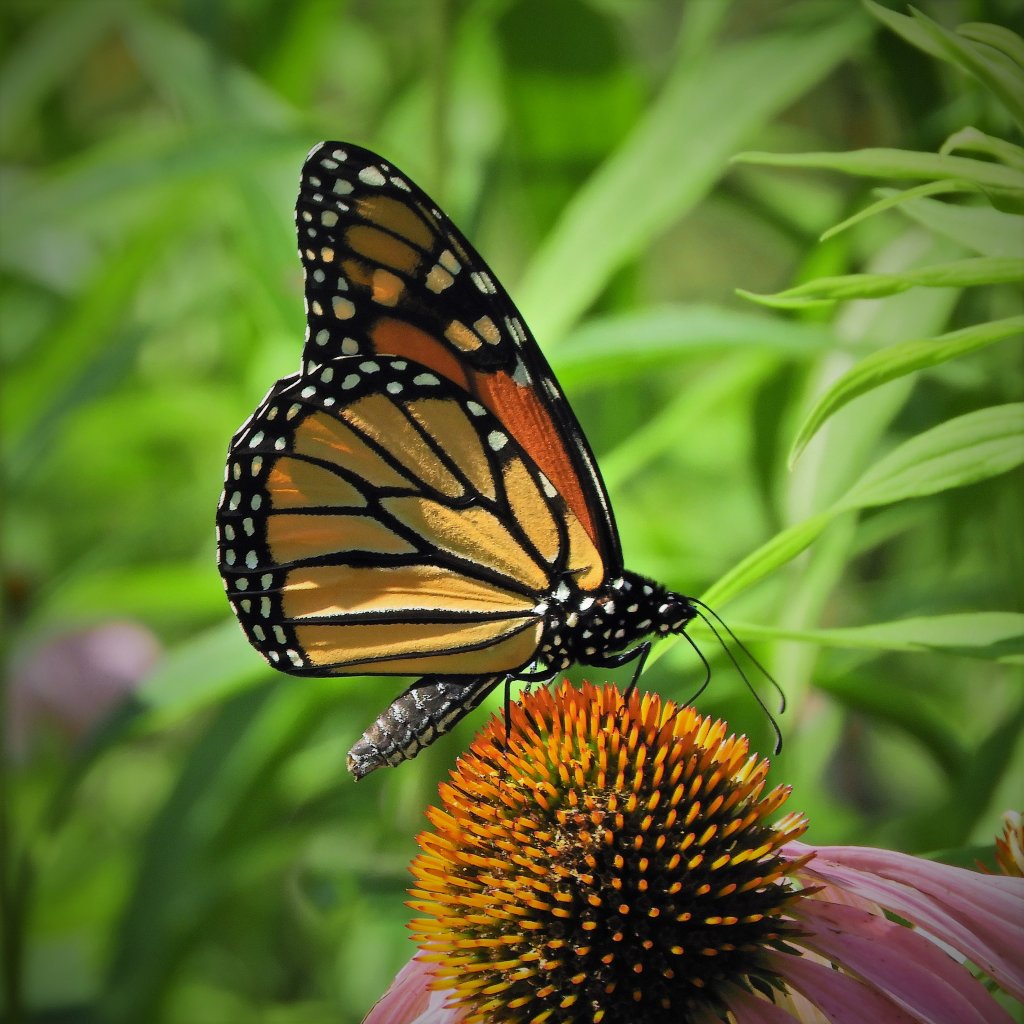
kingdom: Animalia
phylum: Arthropoda
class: Insecta
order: Lepidoptera
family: Nymphalidae
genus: Danaus
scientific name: Danaus plexippus
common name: Monarch
